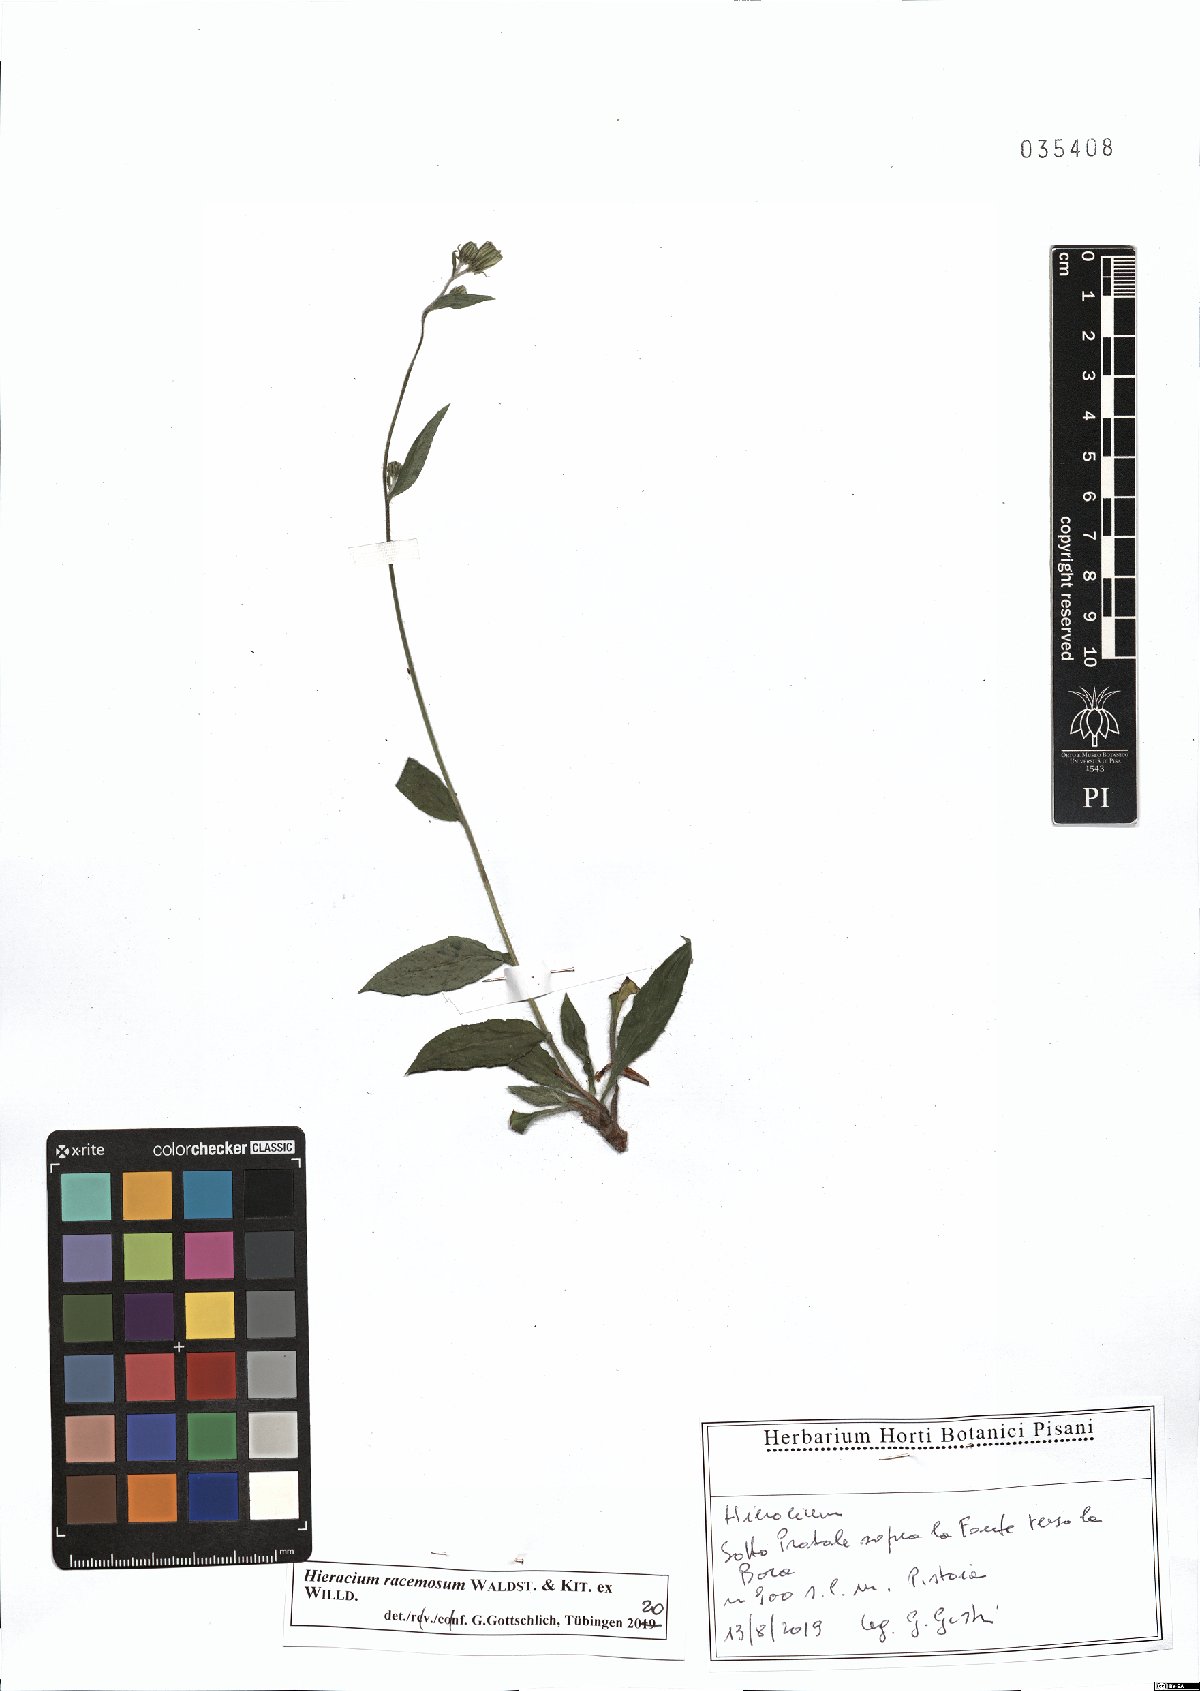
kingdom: Plantae
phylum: Tracheophyta
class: Magnoliopsida
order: Asterales
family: Asteraceae
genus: Hieracium
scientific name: Hieracium racemosum
